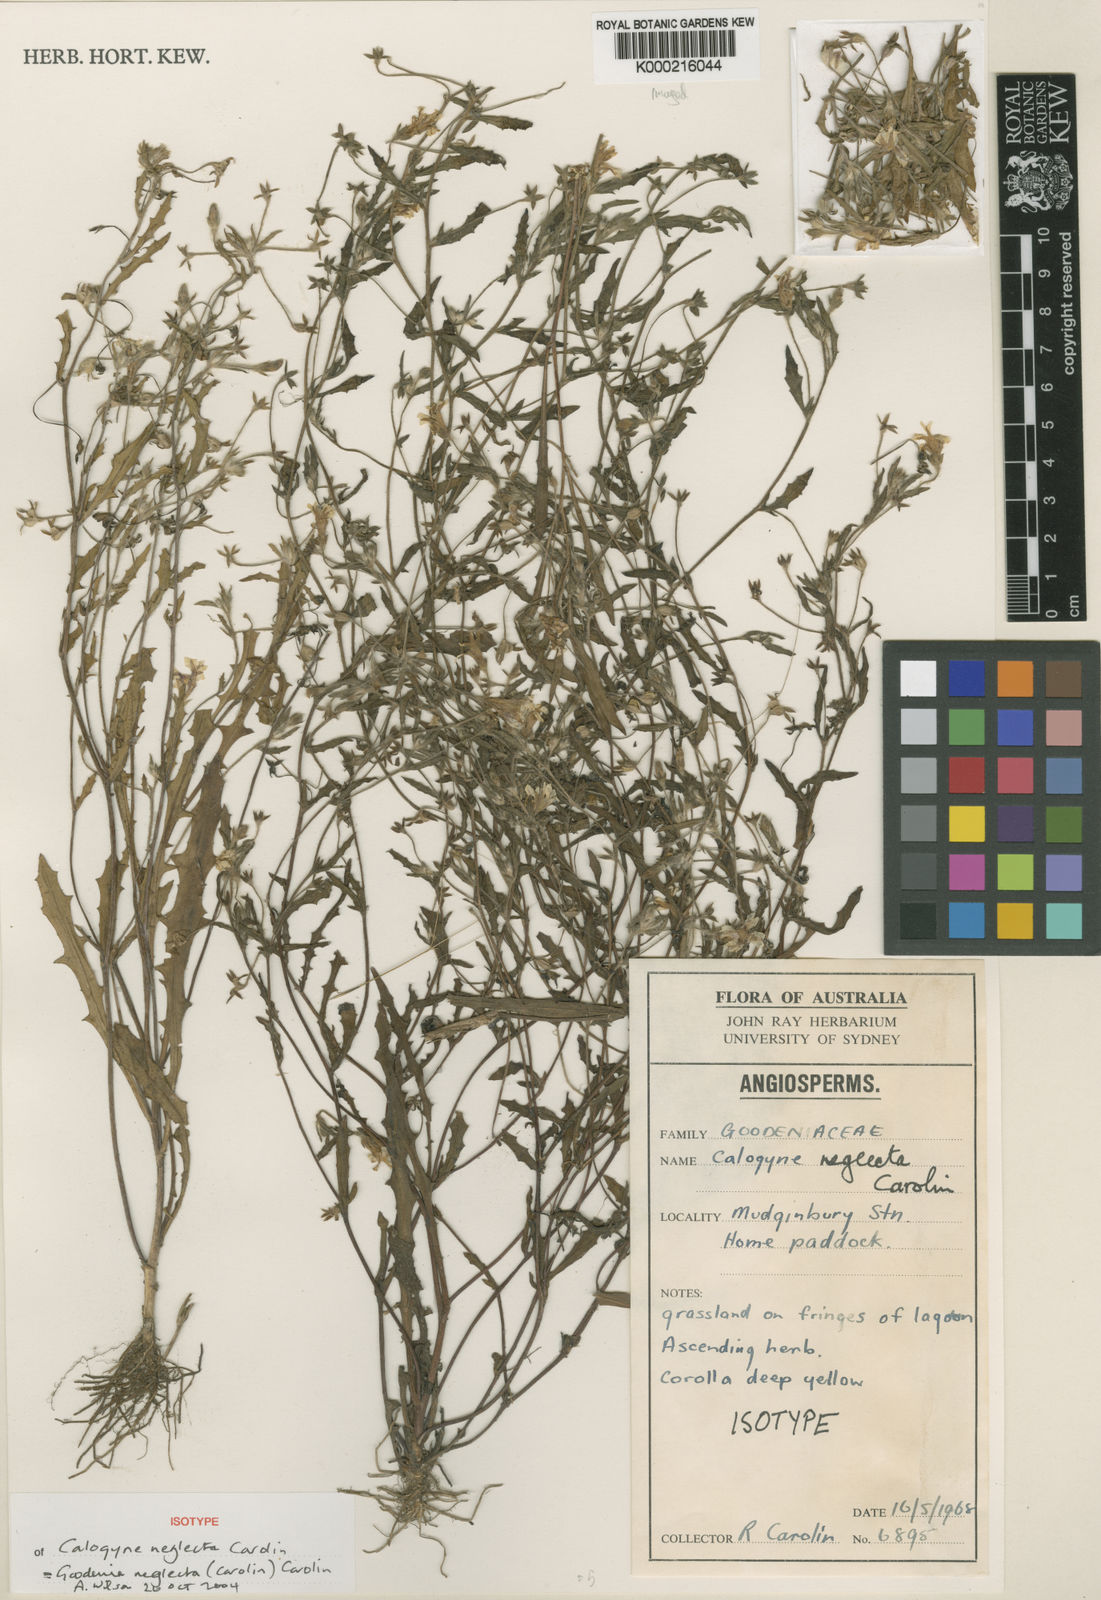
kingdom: Plantae
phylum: Tracheophyta
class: Magnoliopsida
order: Asterales
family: Goodeniaceae
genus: Goodenia
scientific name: Goodenia neglecta
